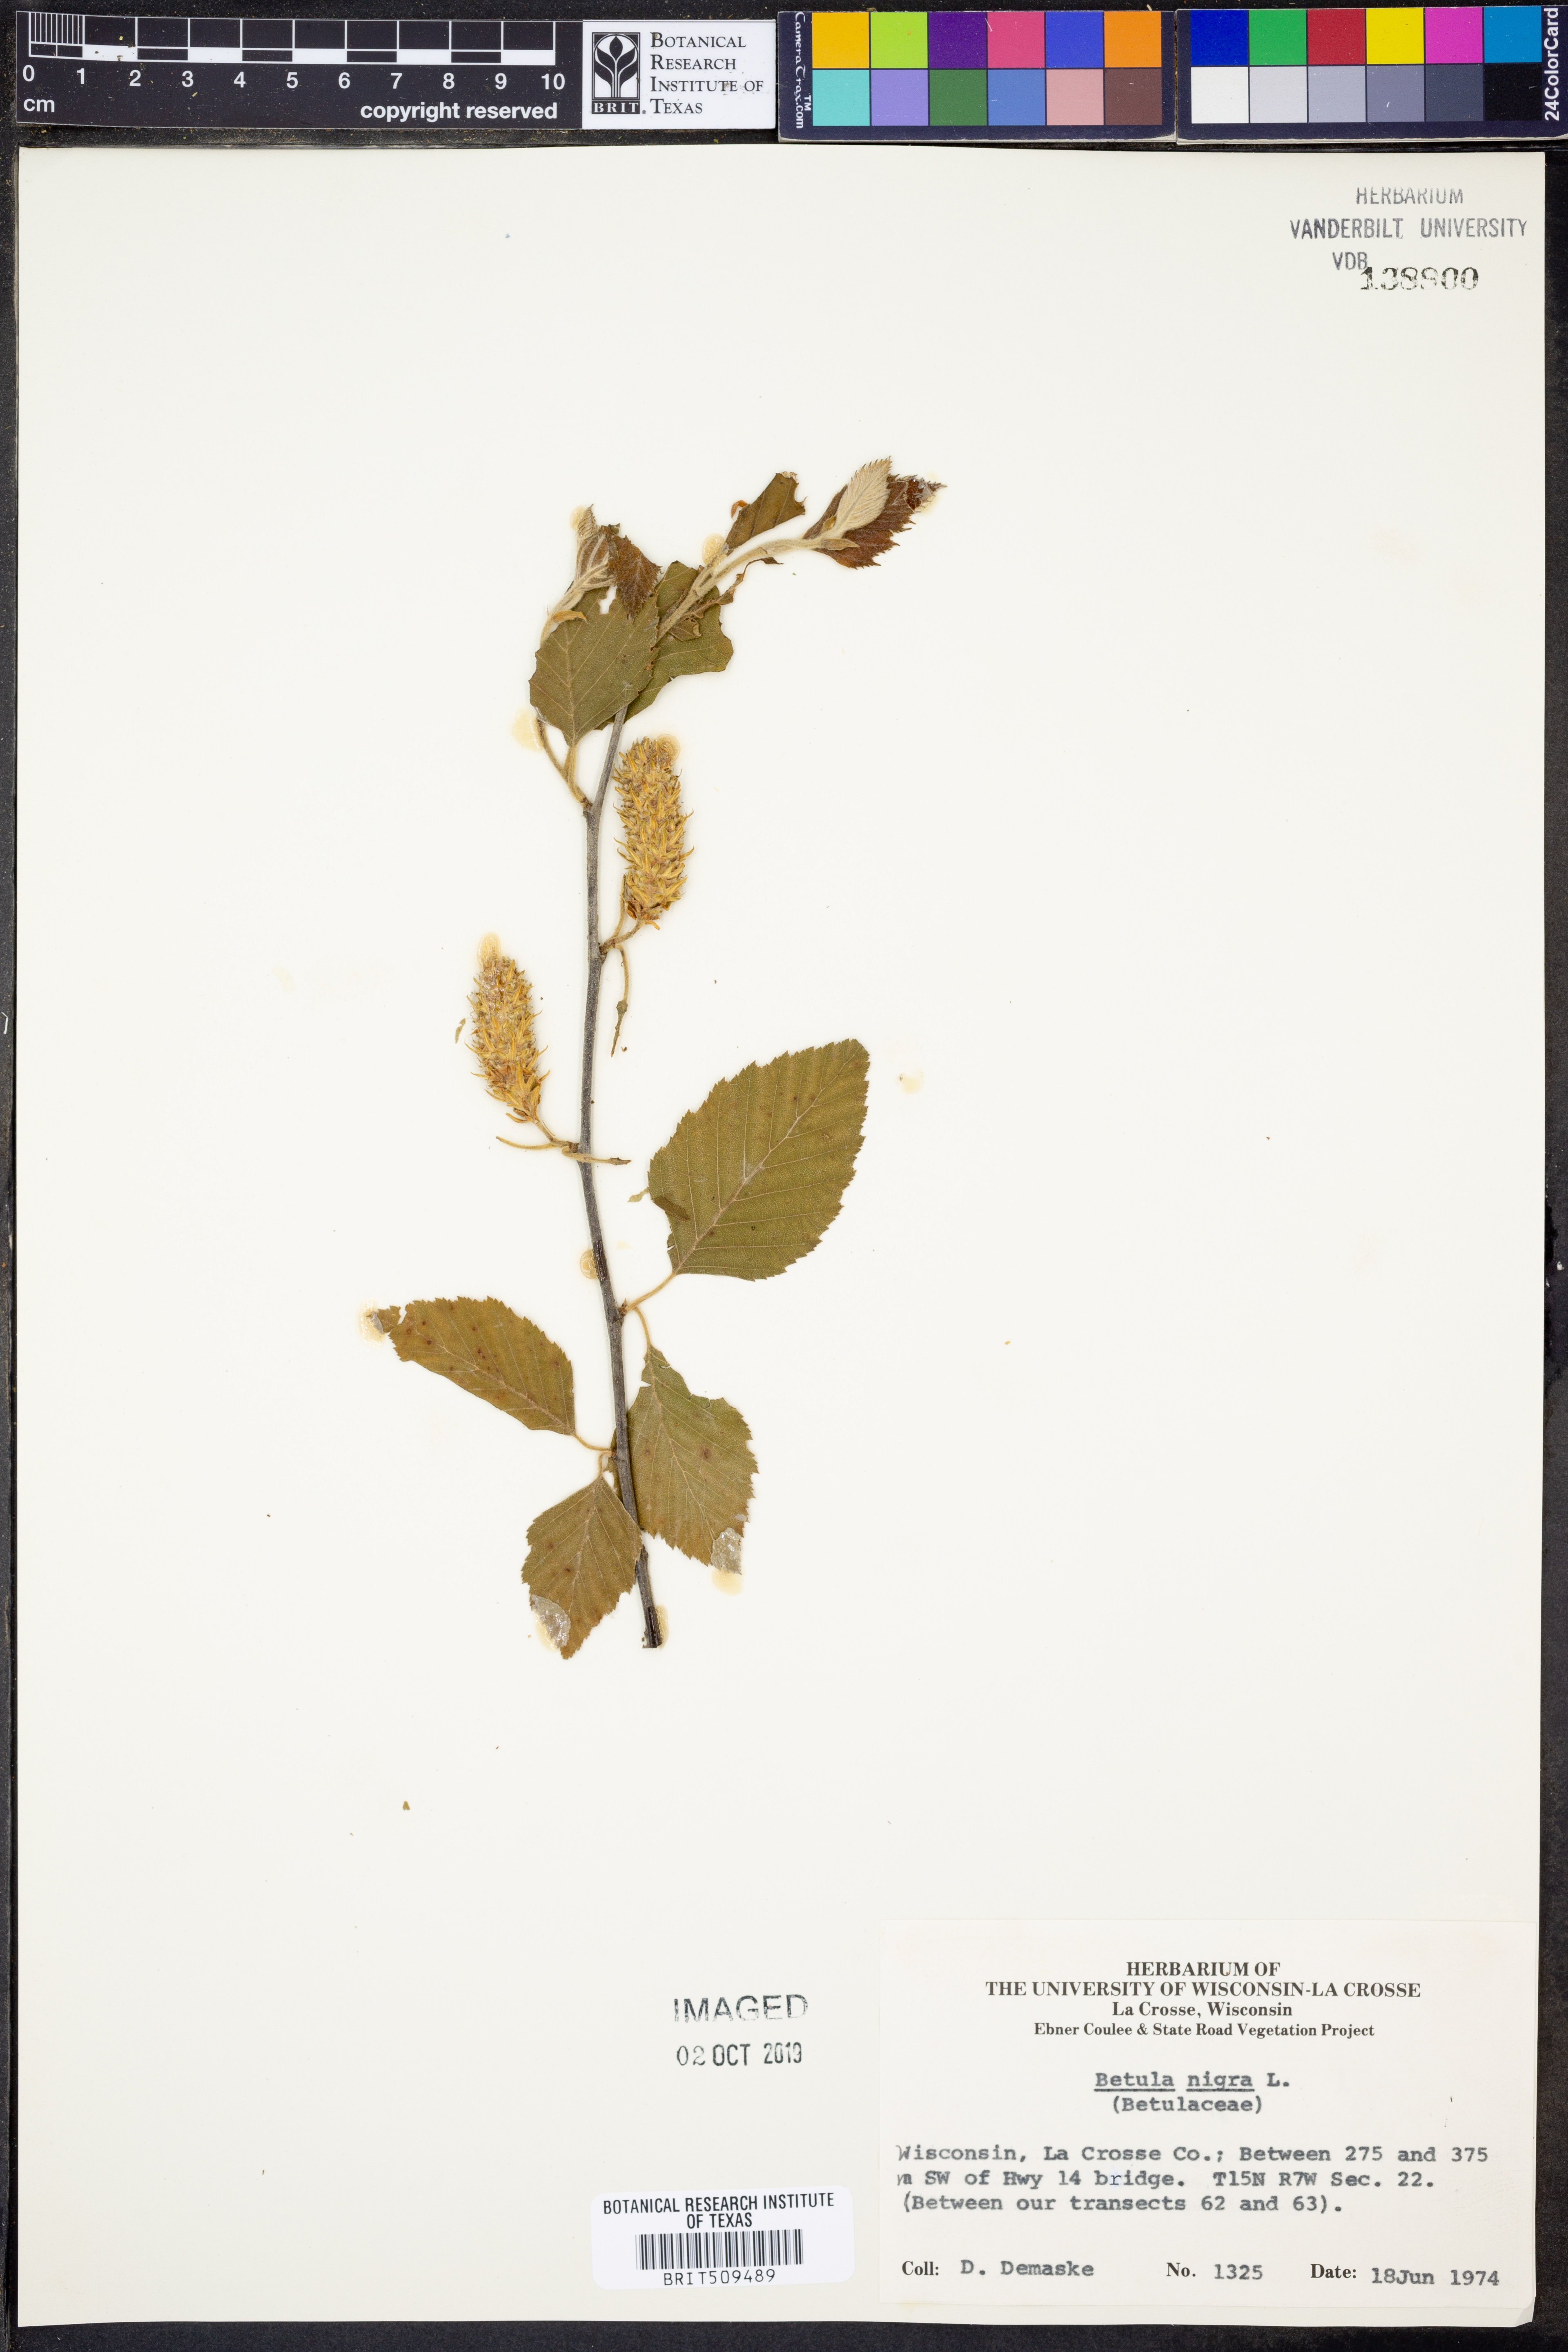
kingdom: Plantae
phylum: Tracheophyta
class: Magnoliopsida
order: Fagales
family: Betulaceae
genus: Betula
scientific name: Betula nigra
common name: Black birch
